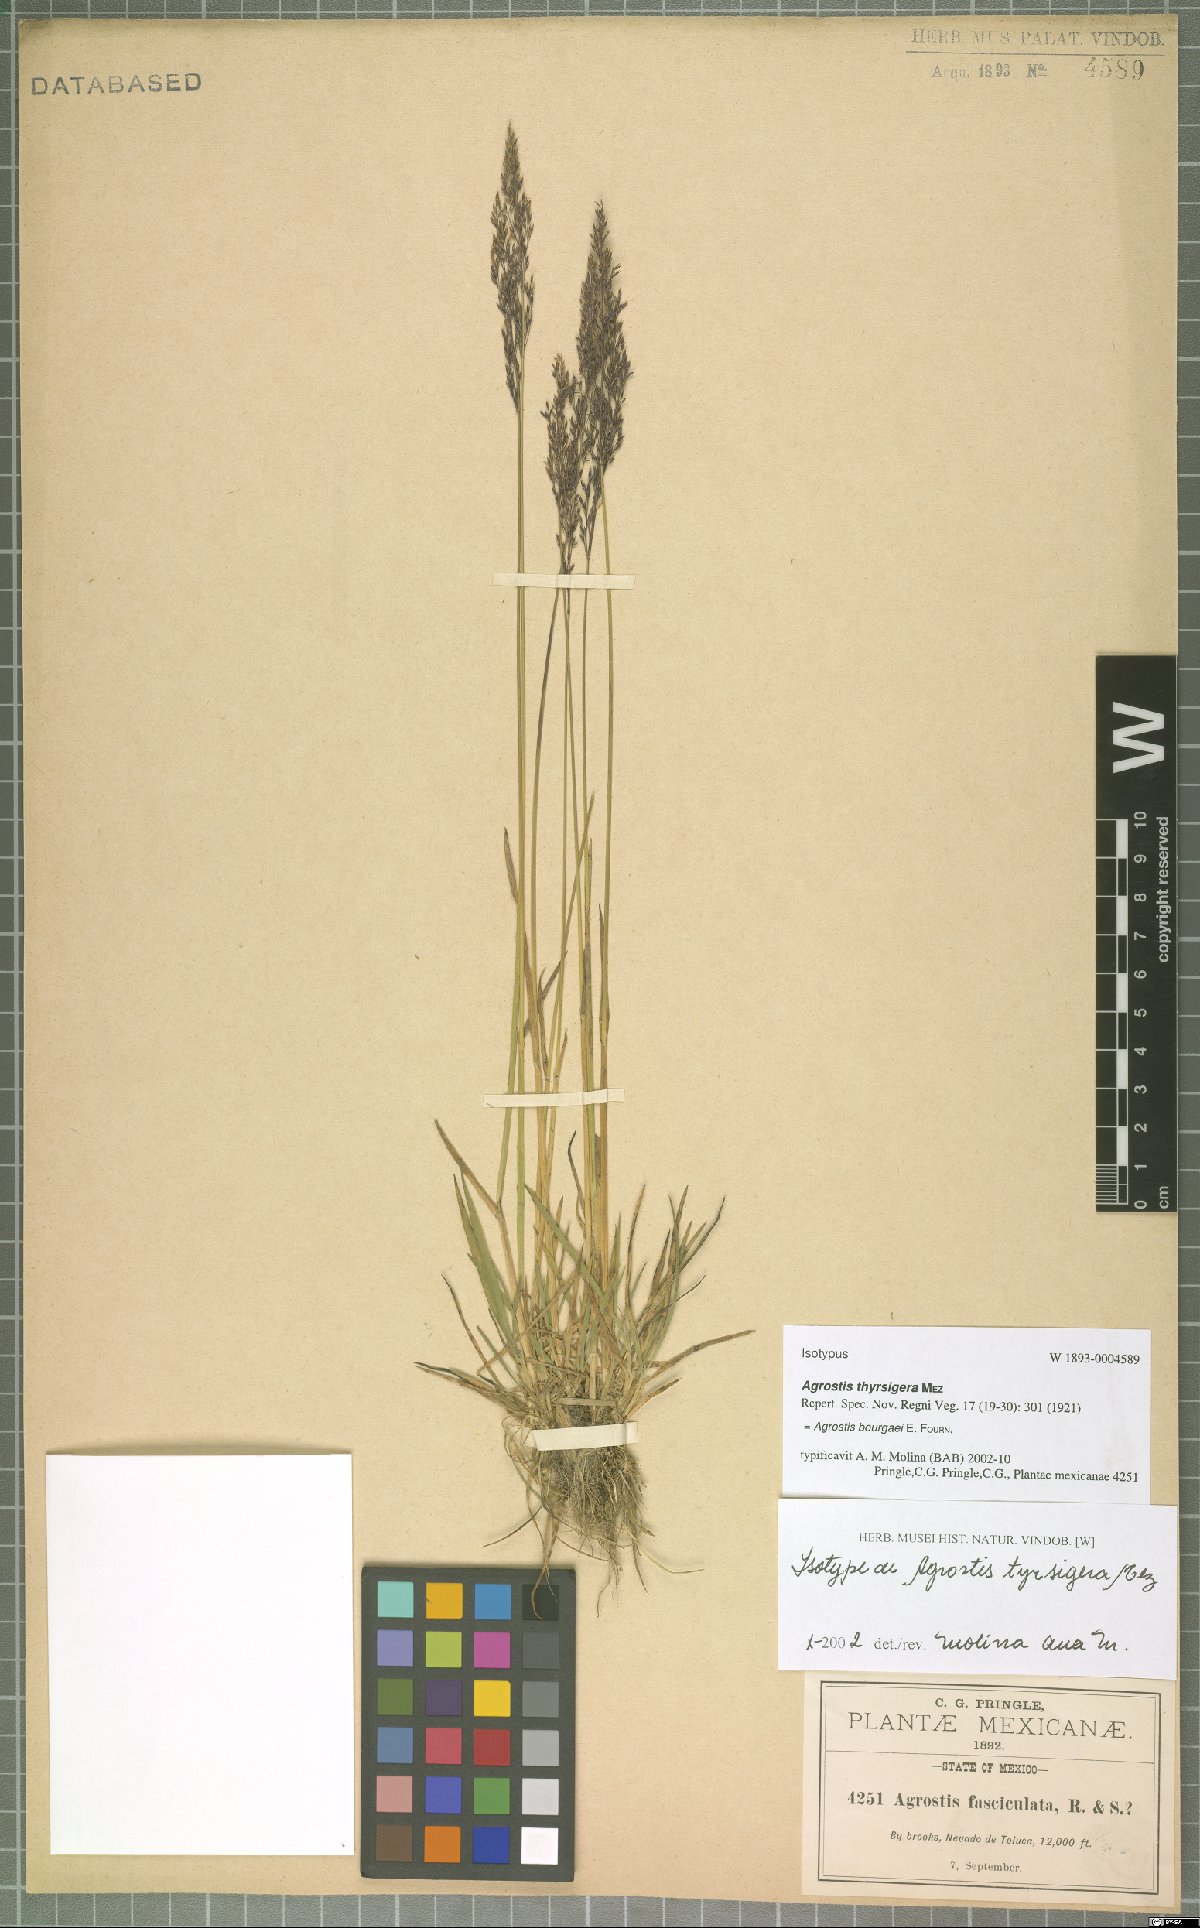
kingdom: Plantae
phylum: Tracheophyta
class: Liliopsida
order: Poales
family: Poaceae
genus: Agrostis
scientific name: Agrostis bourgaei
